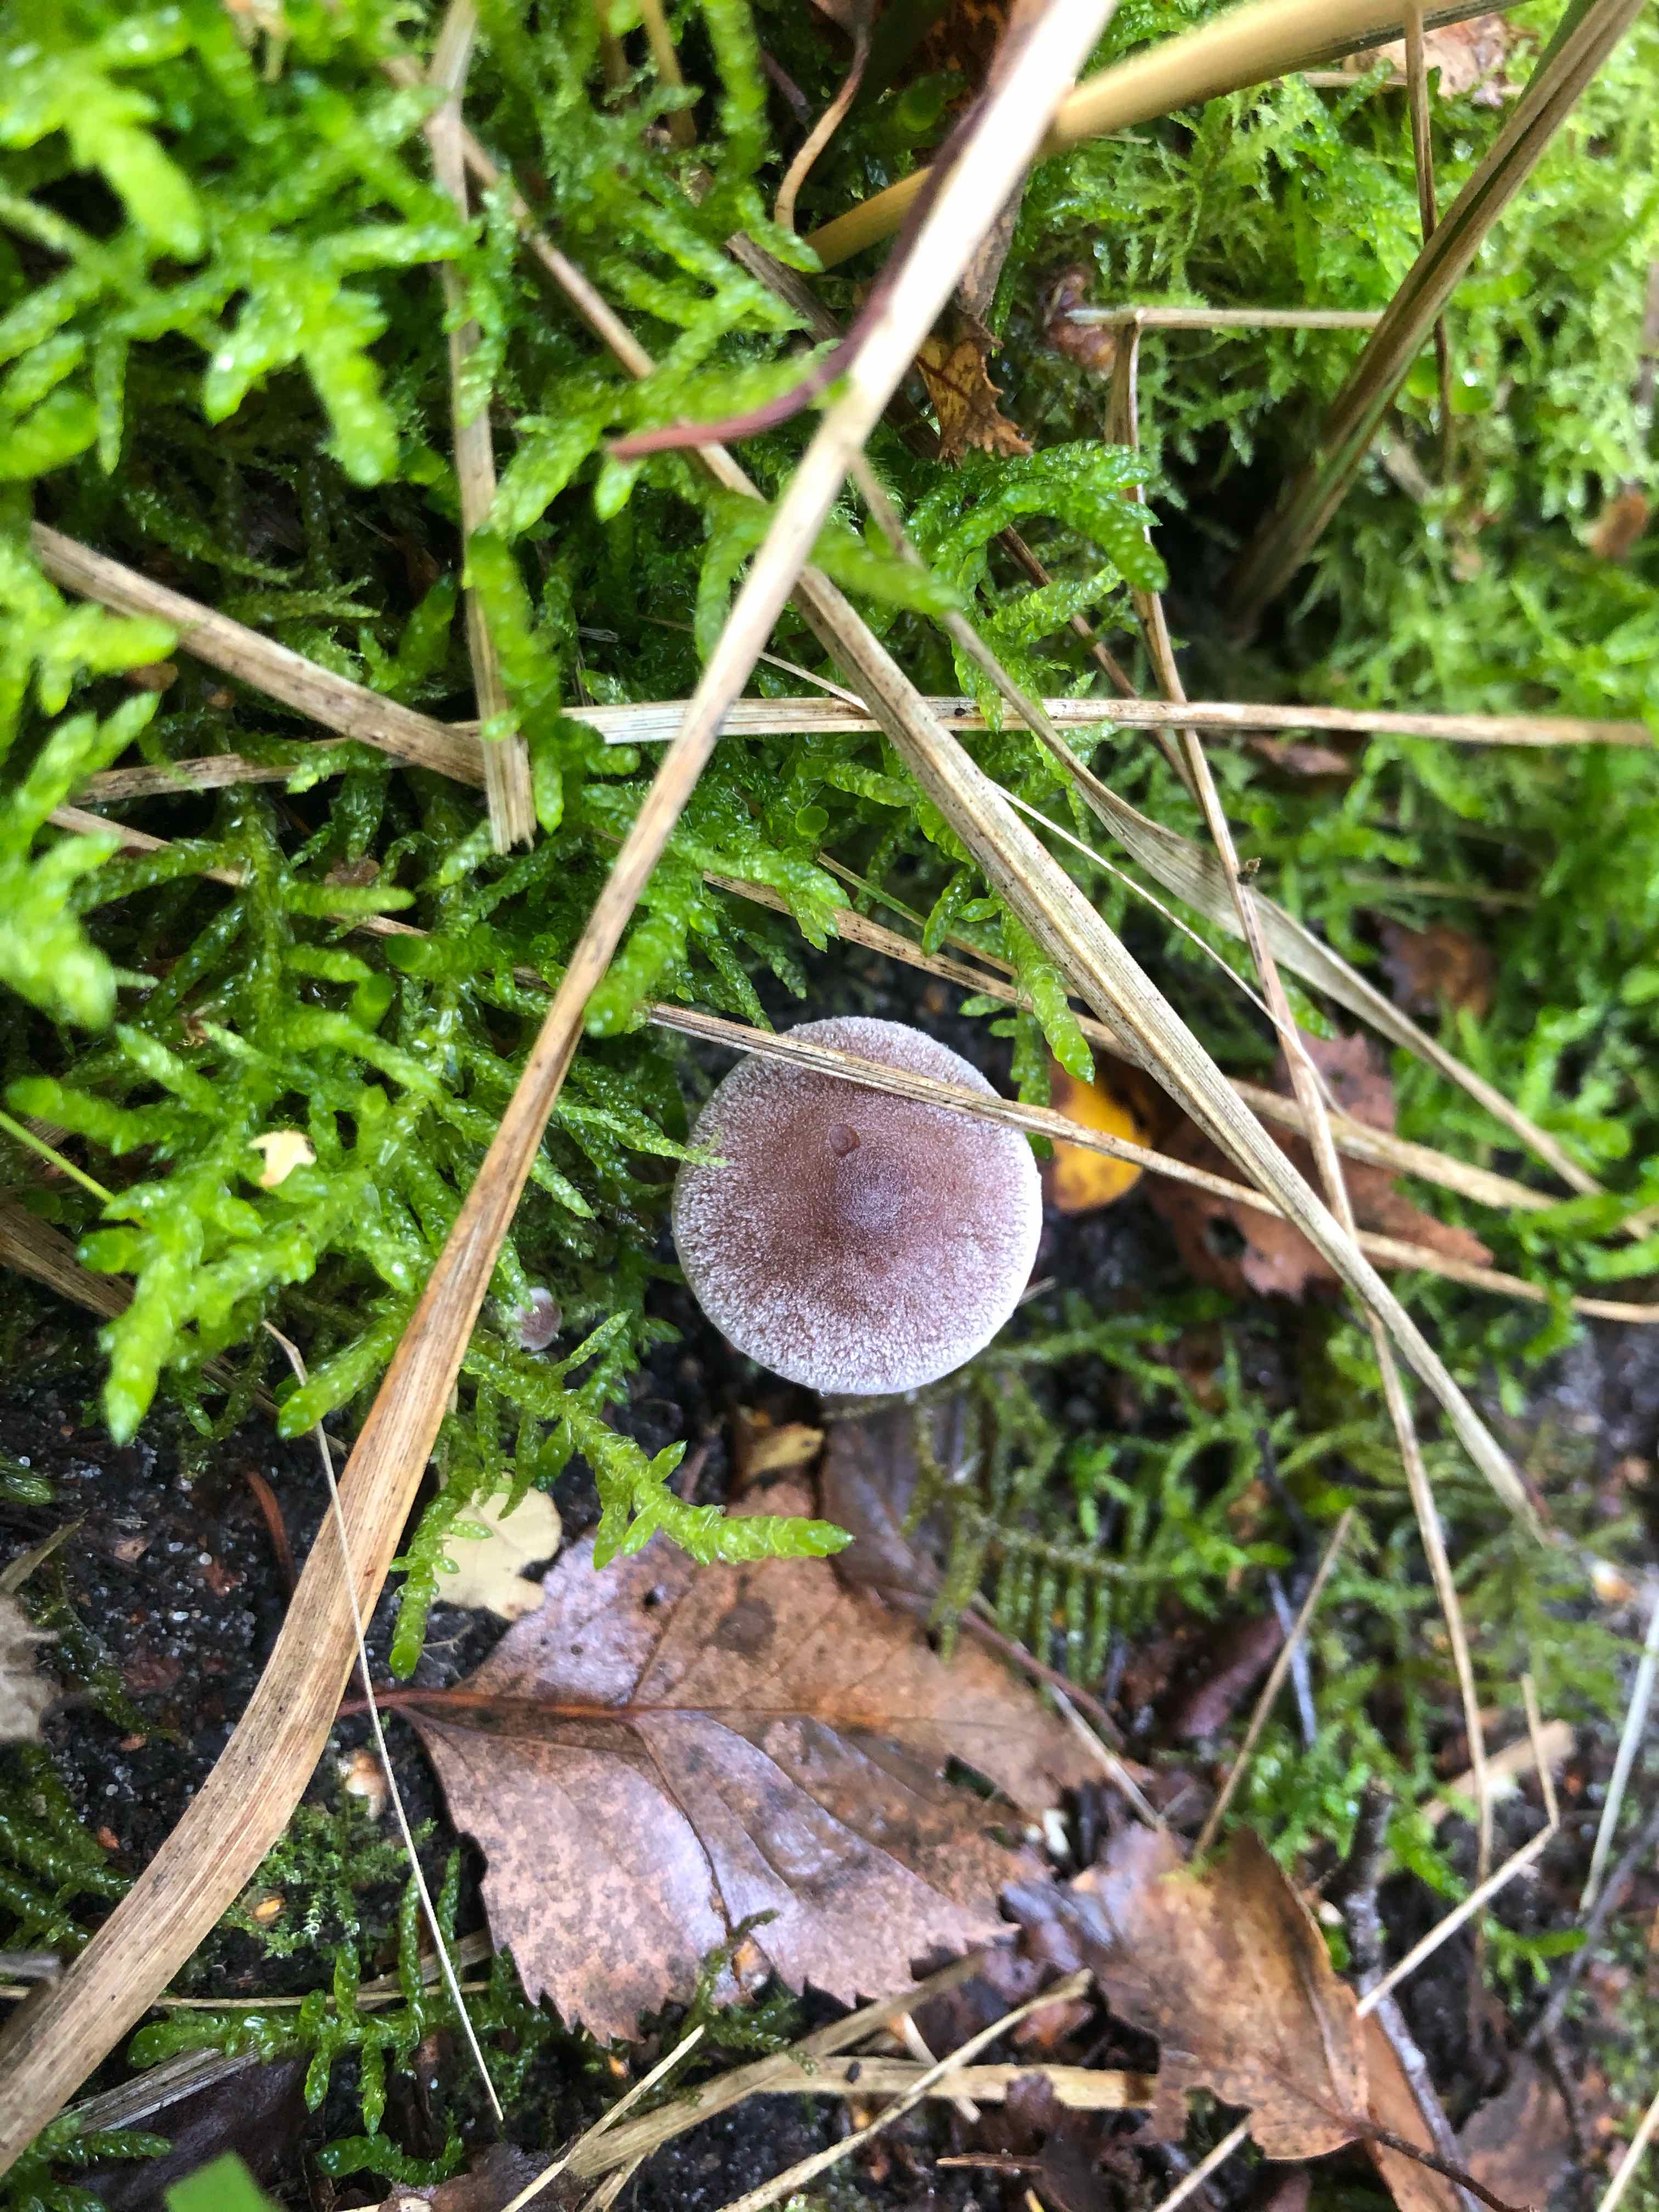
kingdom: Fungi
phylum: Basidiomycota
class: Agaricomycetes
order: Agaricales
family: Cortinariaceae
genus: Cortinarius
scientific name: Cortinarius
